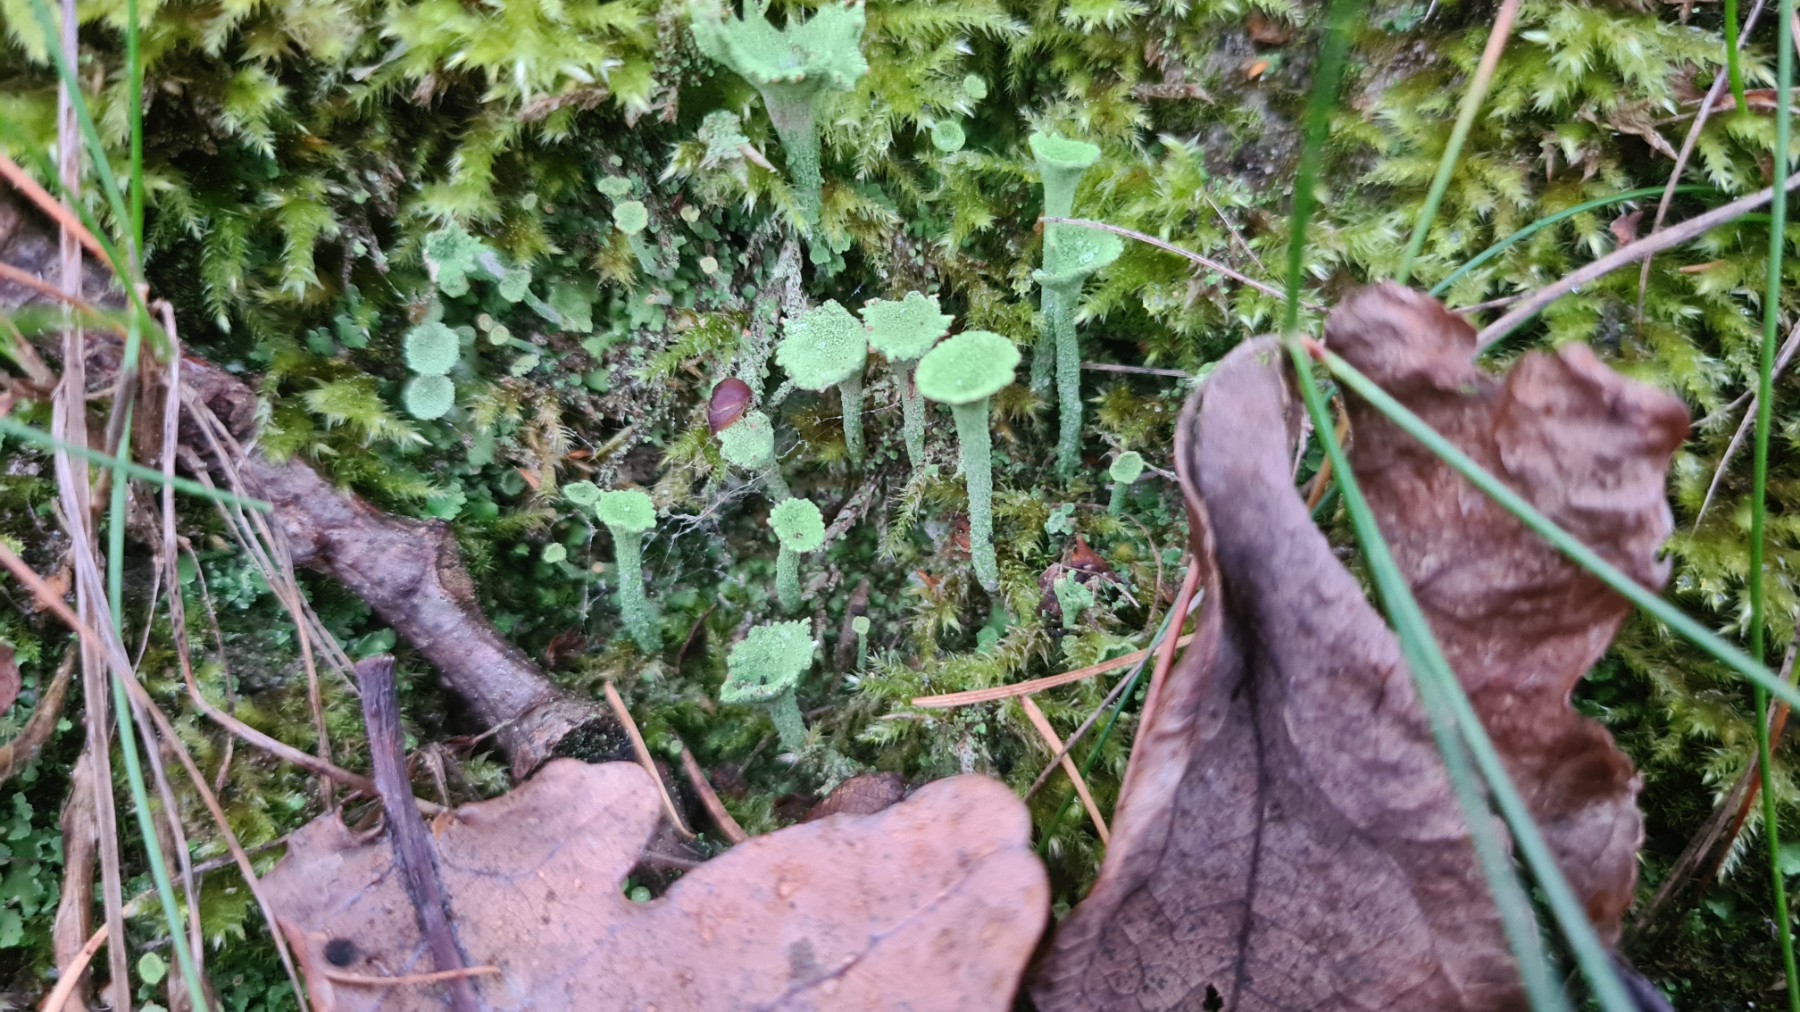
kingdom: Fungi
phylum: Ascomycota
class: Lecanoromycetes
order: Lecanorales
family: Cladoniaceae
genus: Cladonia
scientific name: Cladonia fimbriata
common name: bleggrøn bægerlav
